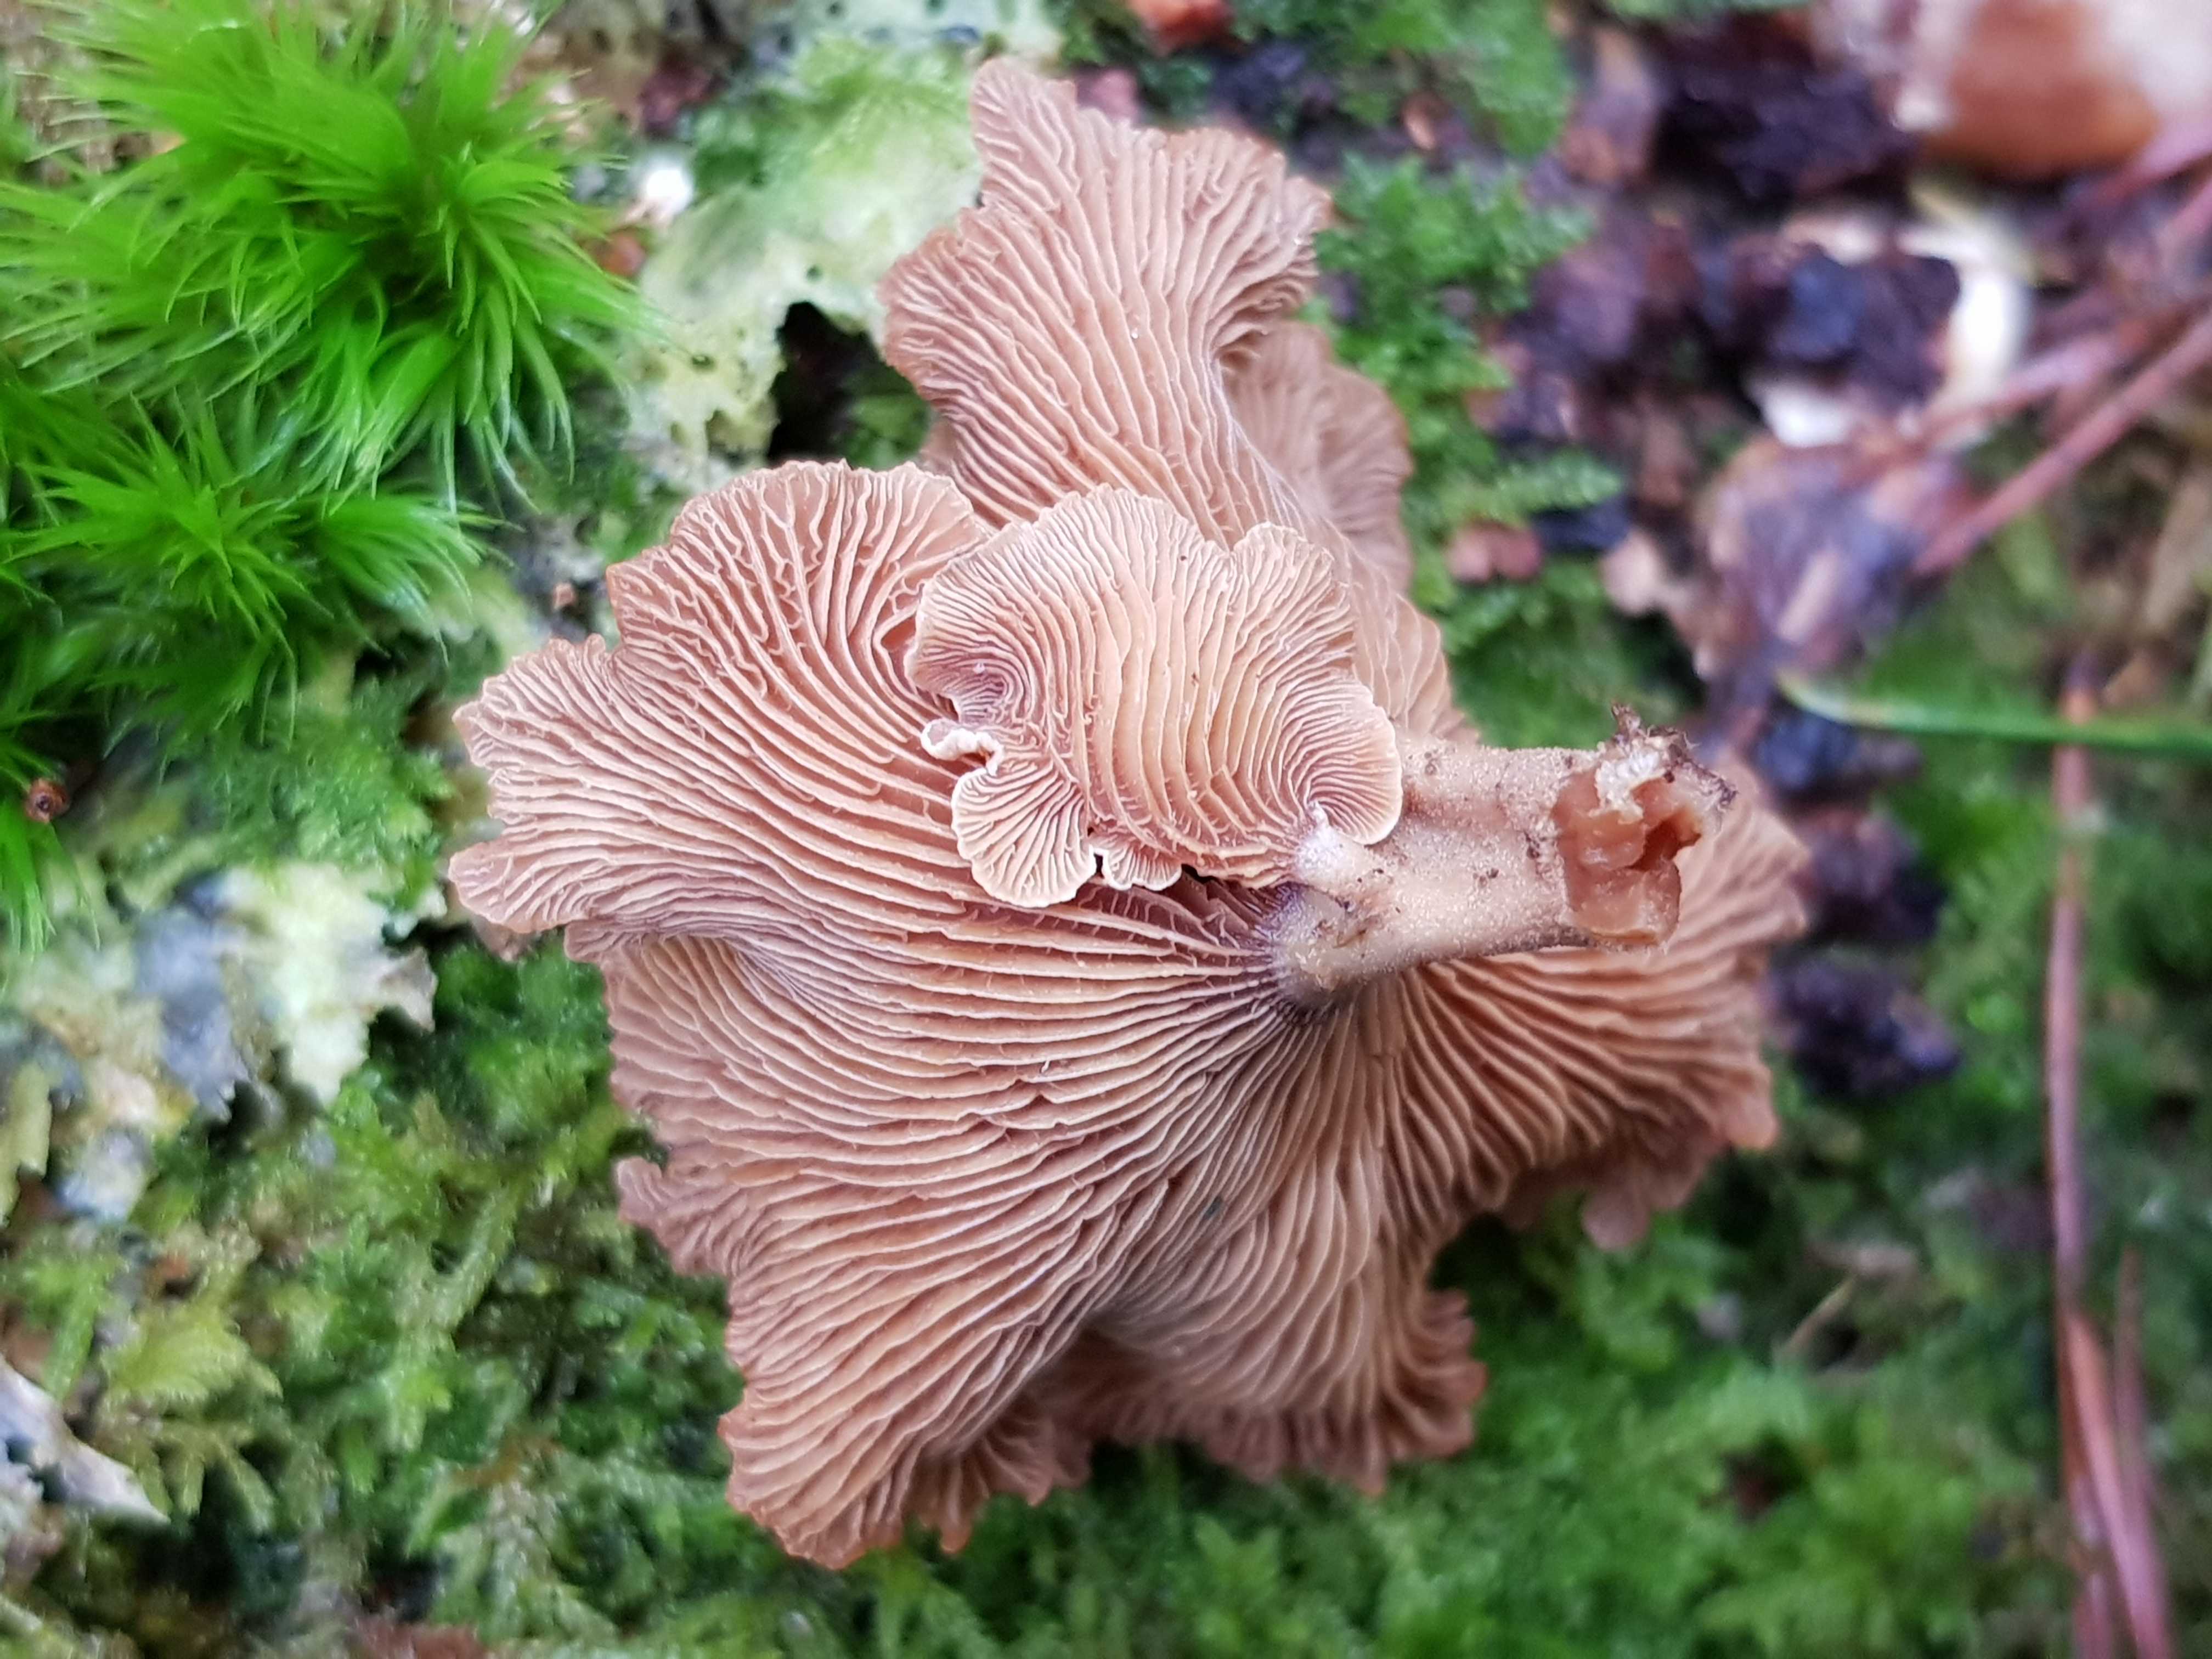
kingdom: Fungi
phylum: Basidiomycota
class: Agaricomycetes
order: Agaricales
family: Mycenaceae
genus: Panellus
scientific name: Panellus stipticus
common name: kliddet epaulethat
